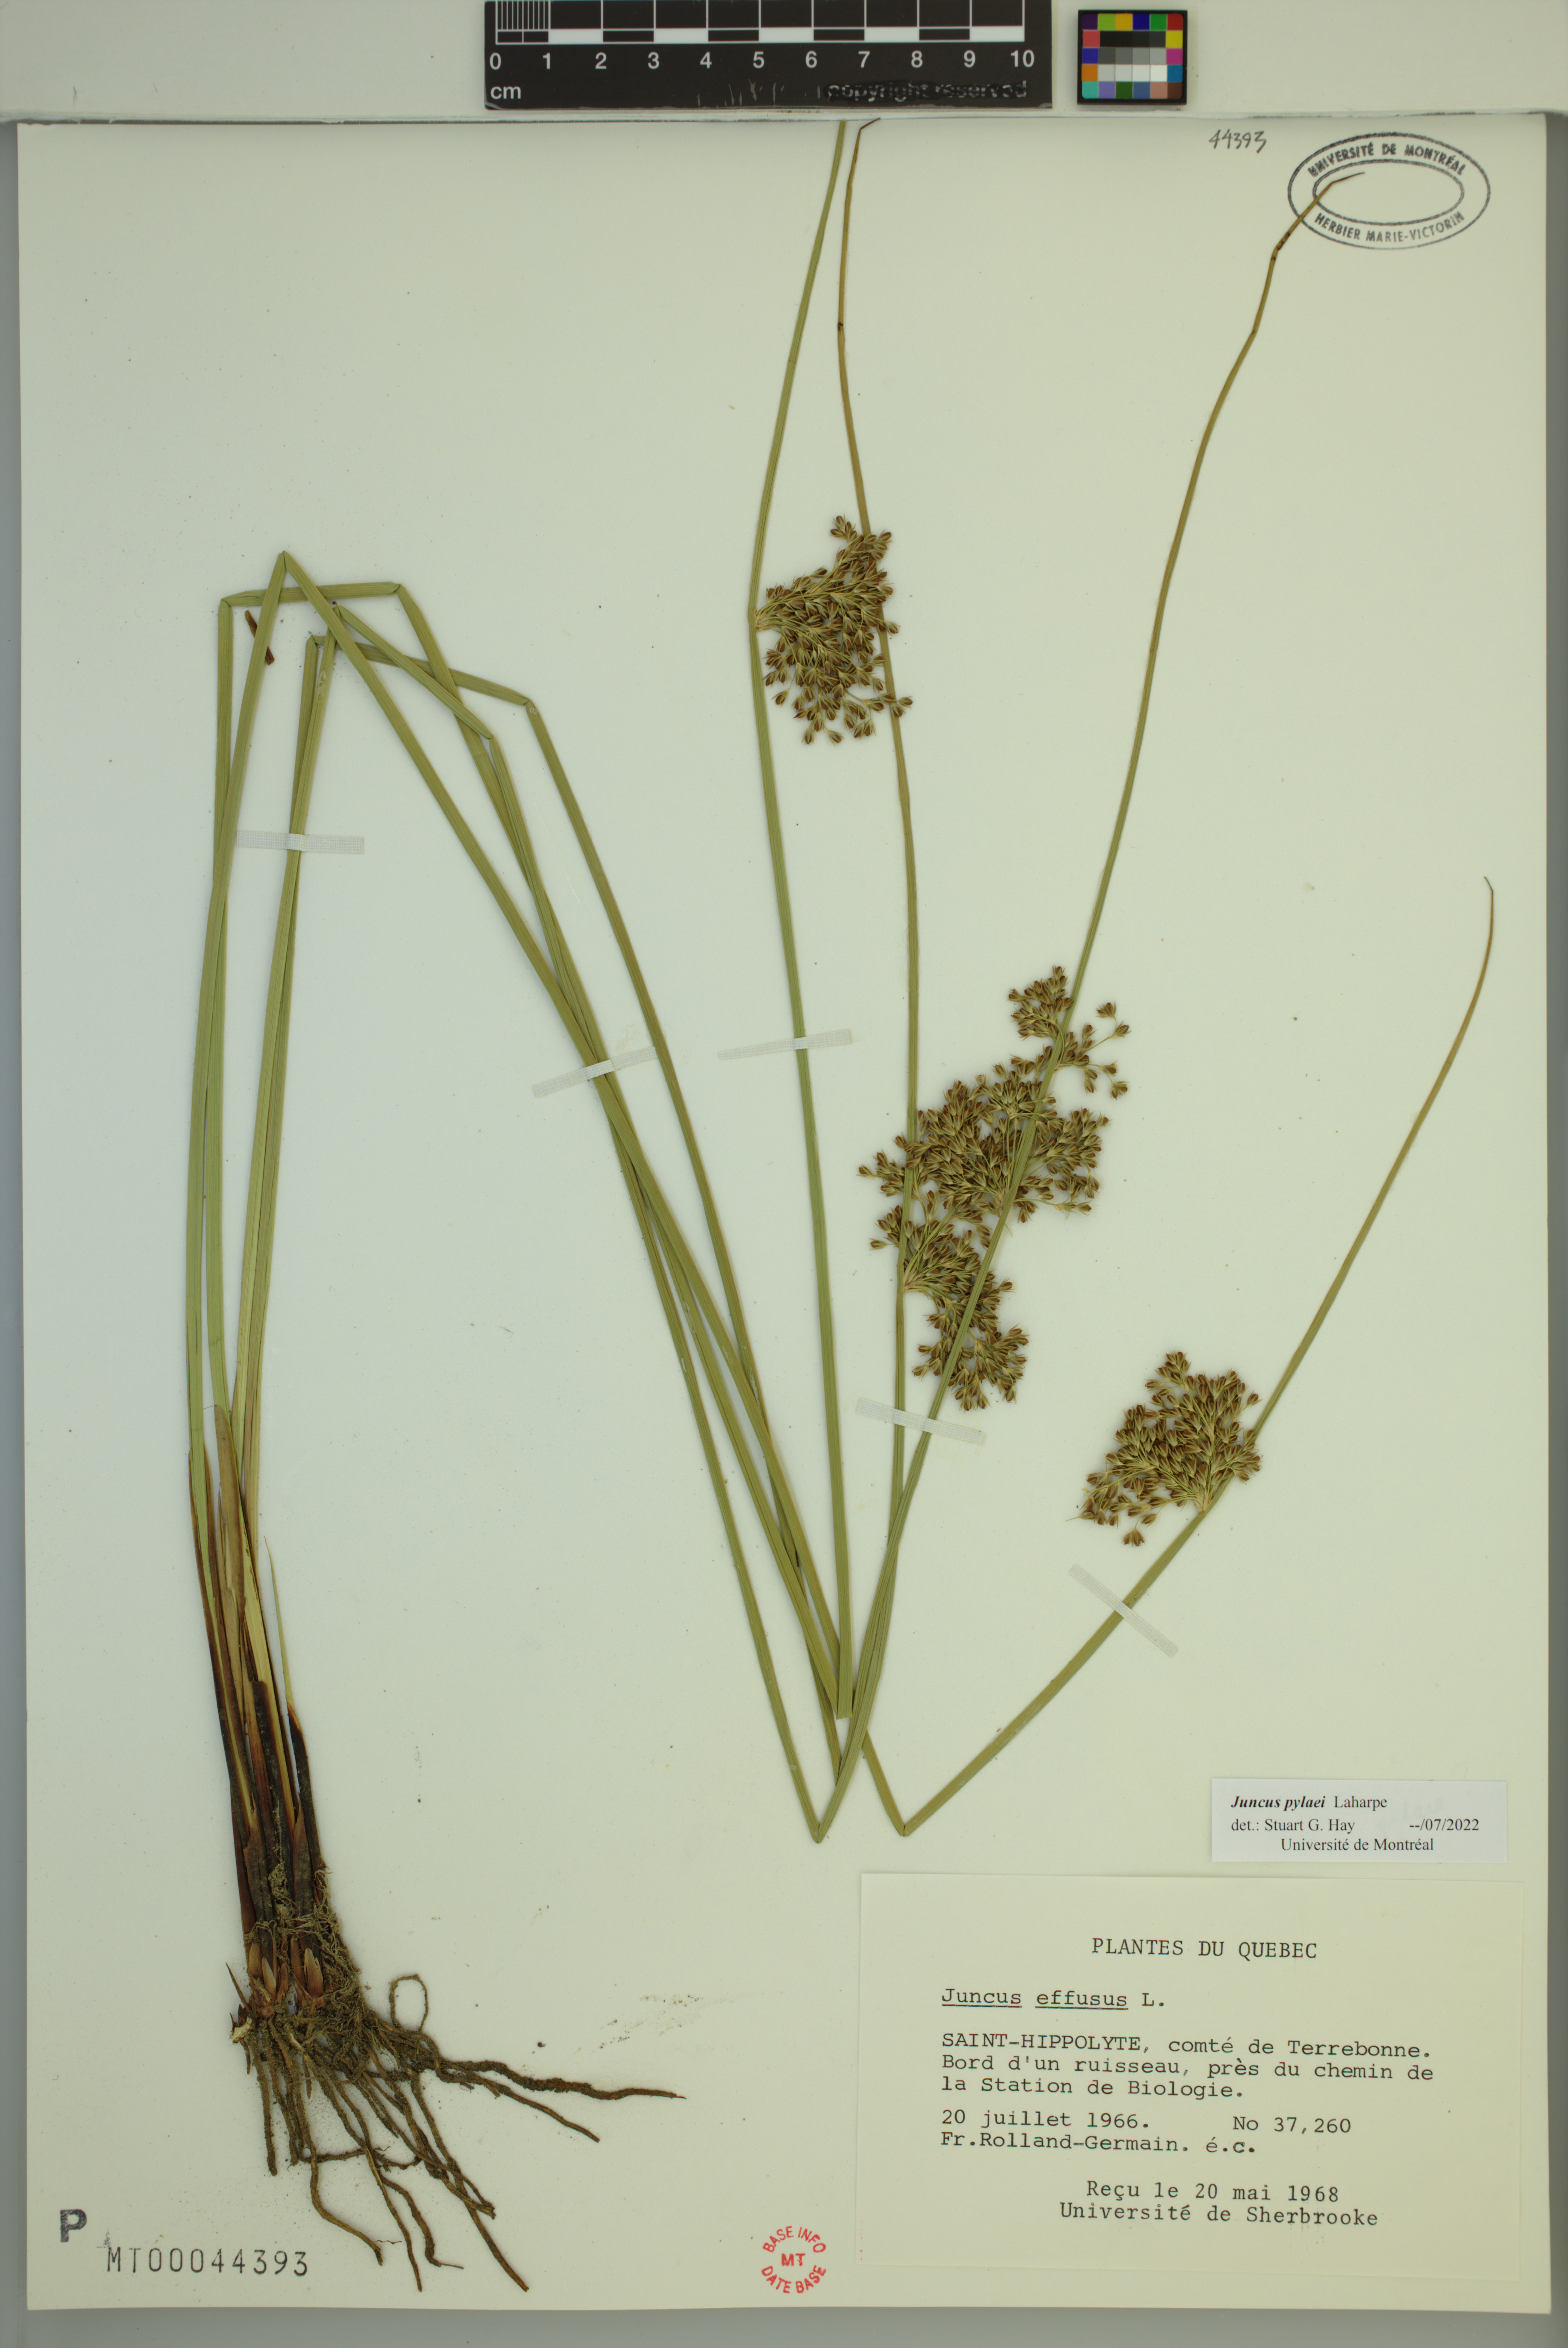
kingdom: Plantae
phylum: Tracheophyta
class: Liliopsida
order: Poales
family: Juncaceae
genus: Juncus
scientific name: Juncus effusus
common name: Soft rush
